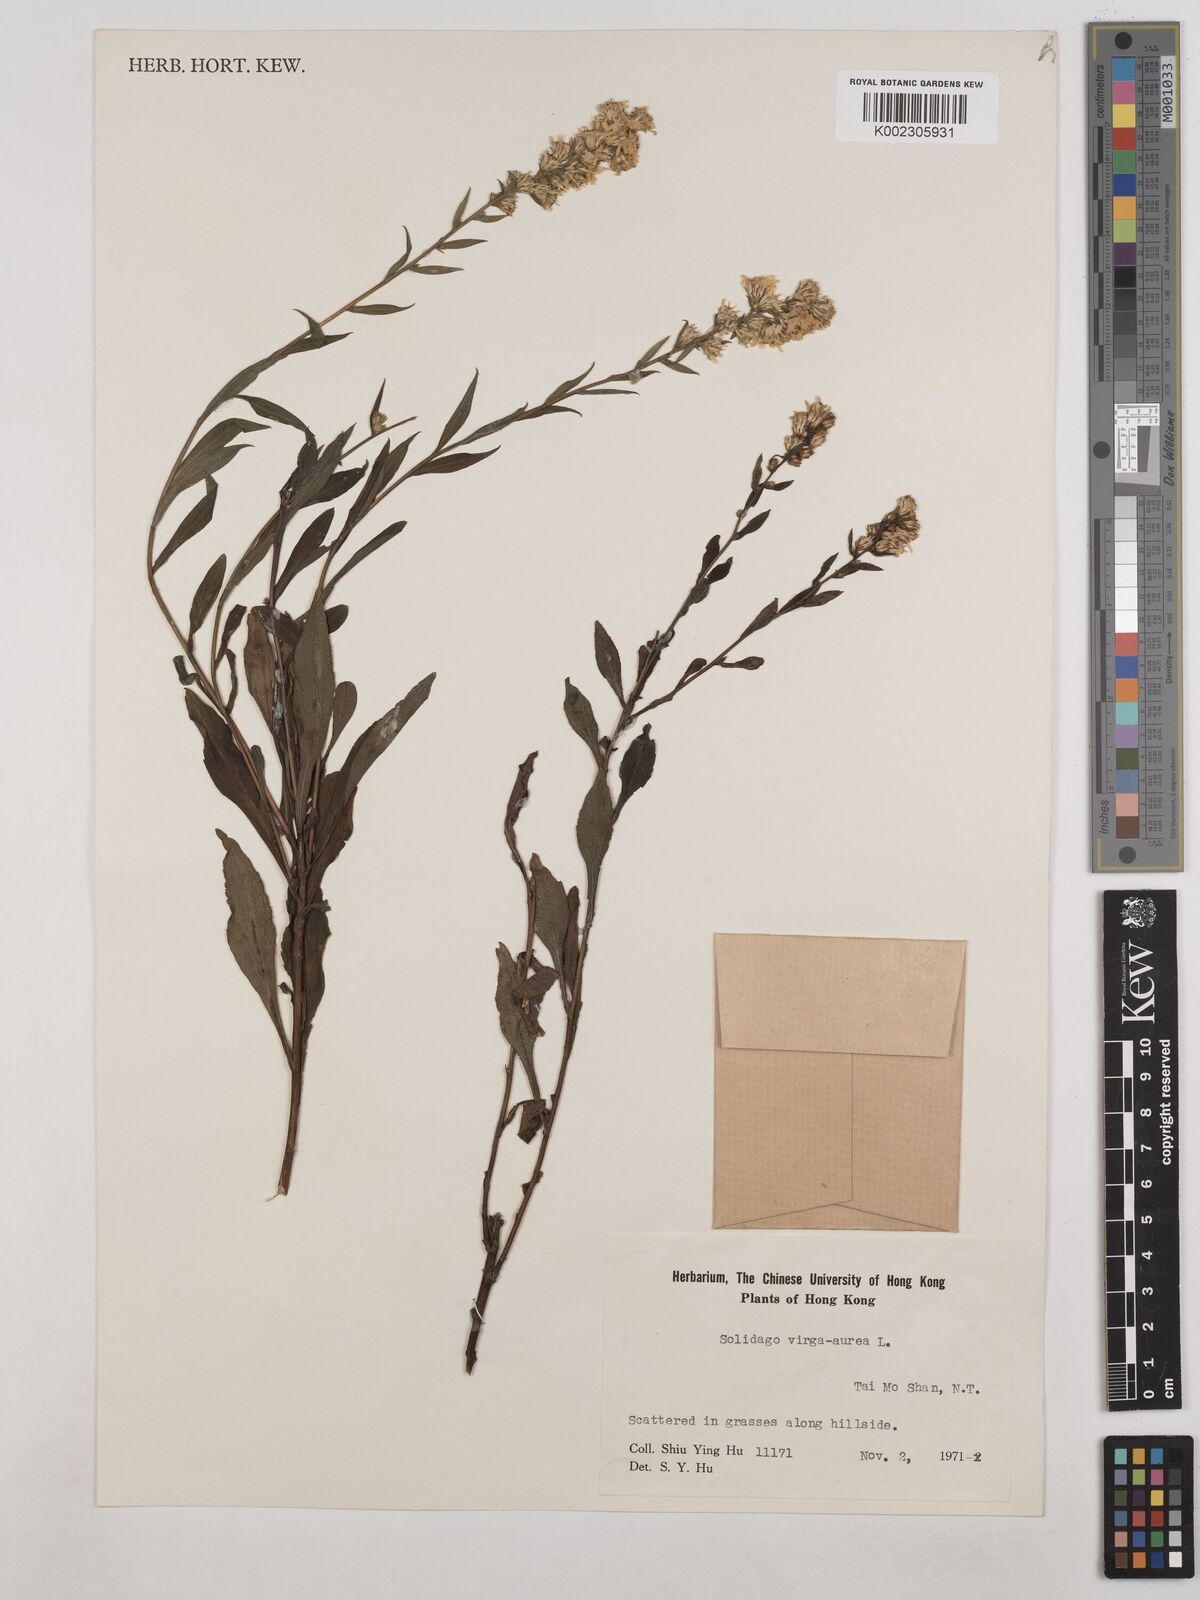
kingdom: Plantae
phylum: Tracheophyta
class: Magnoliopsida
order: Asterales
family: Asteraceae
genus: Solidago
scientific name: Solidago virgaurea
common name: Goldenrod
